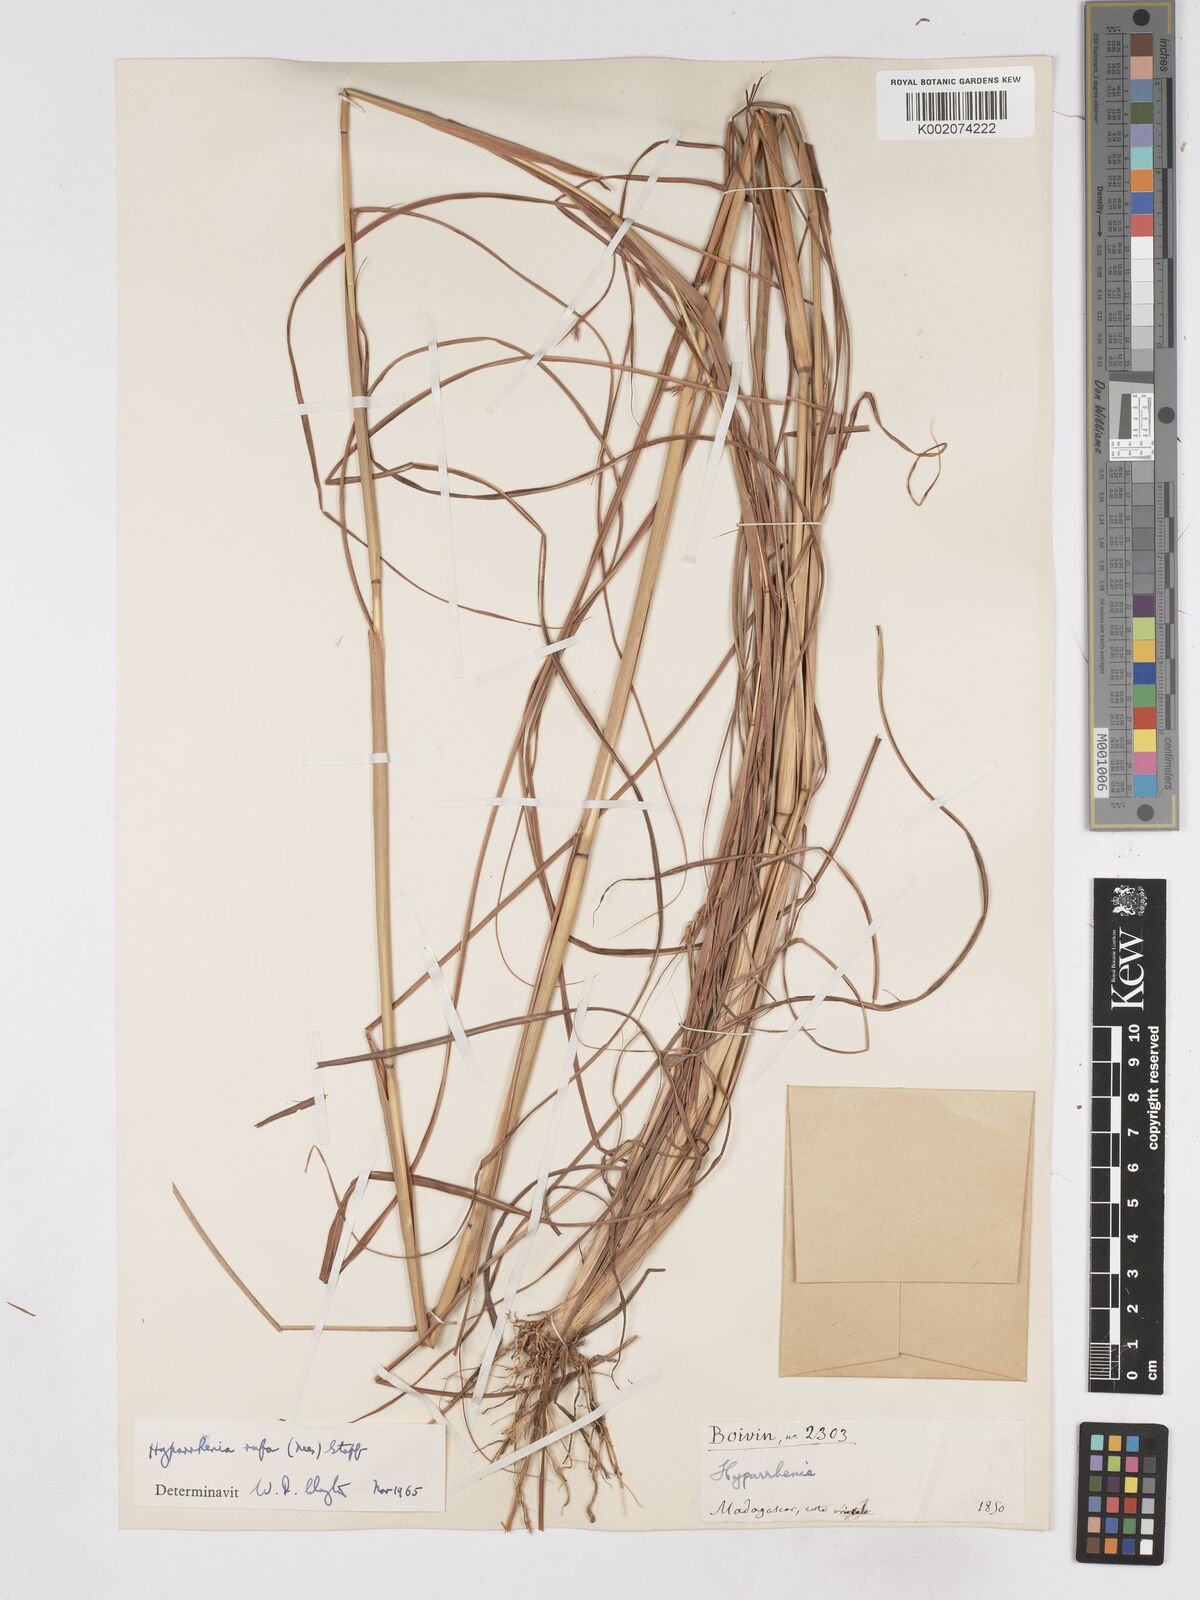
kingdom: Plantae
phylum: Tracheophyta
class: Liliopsida
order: Poales
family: Poaceae
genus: Hyparrhenia
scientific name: Hyparrhenia rufa
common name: Jaraguagrass
